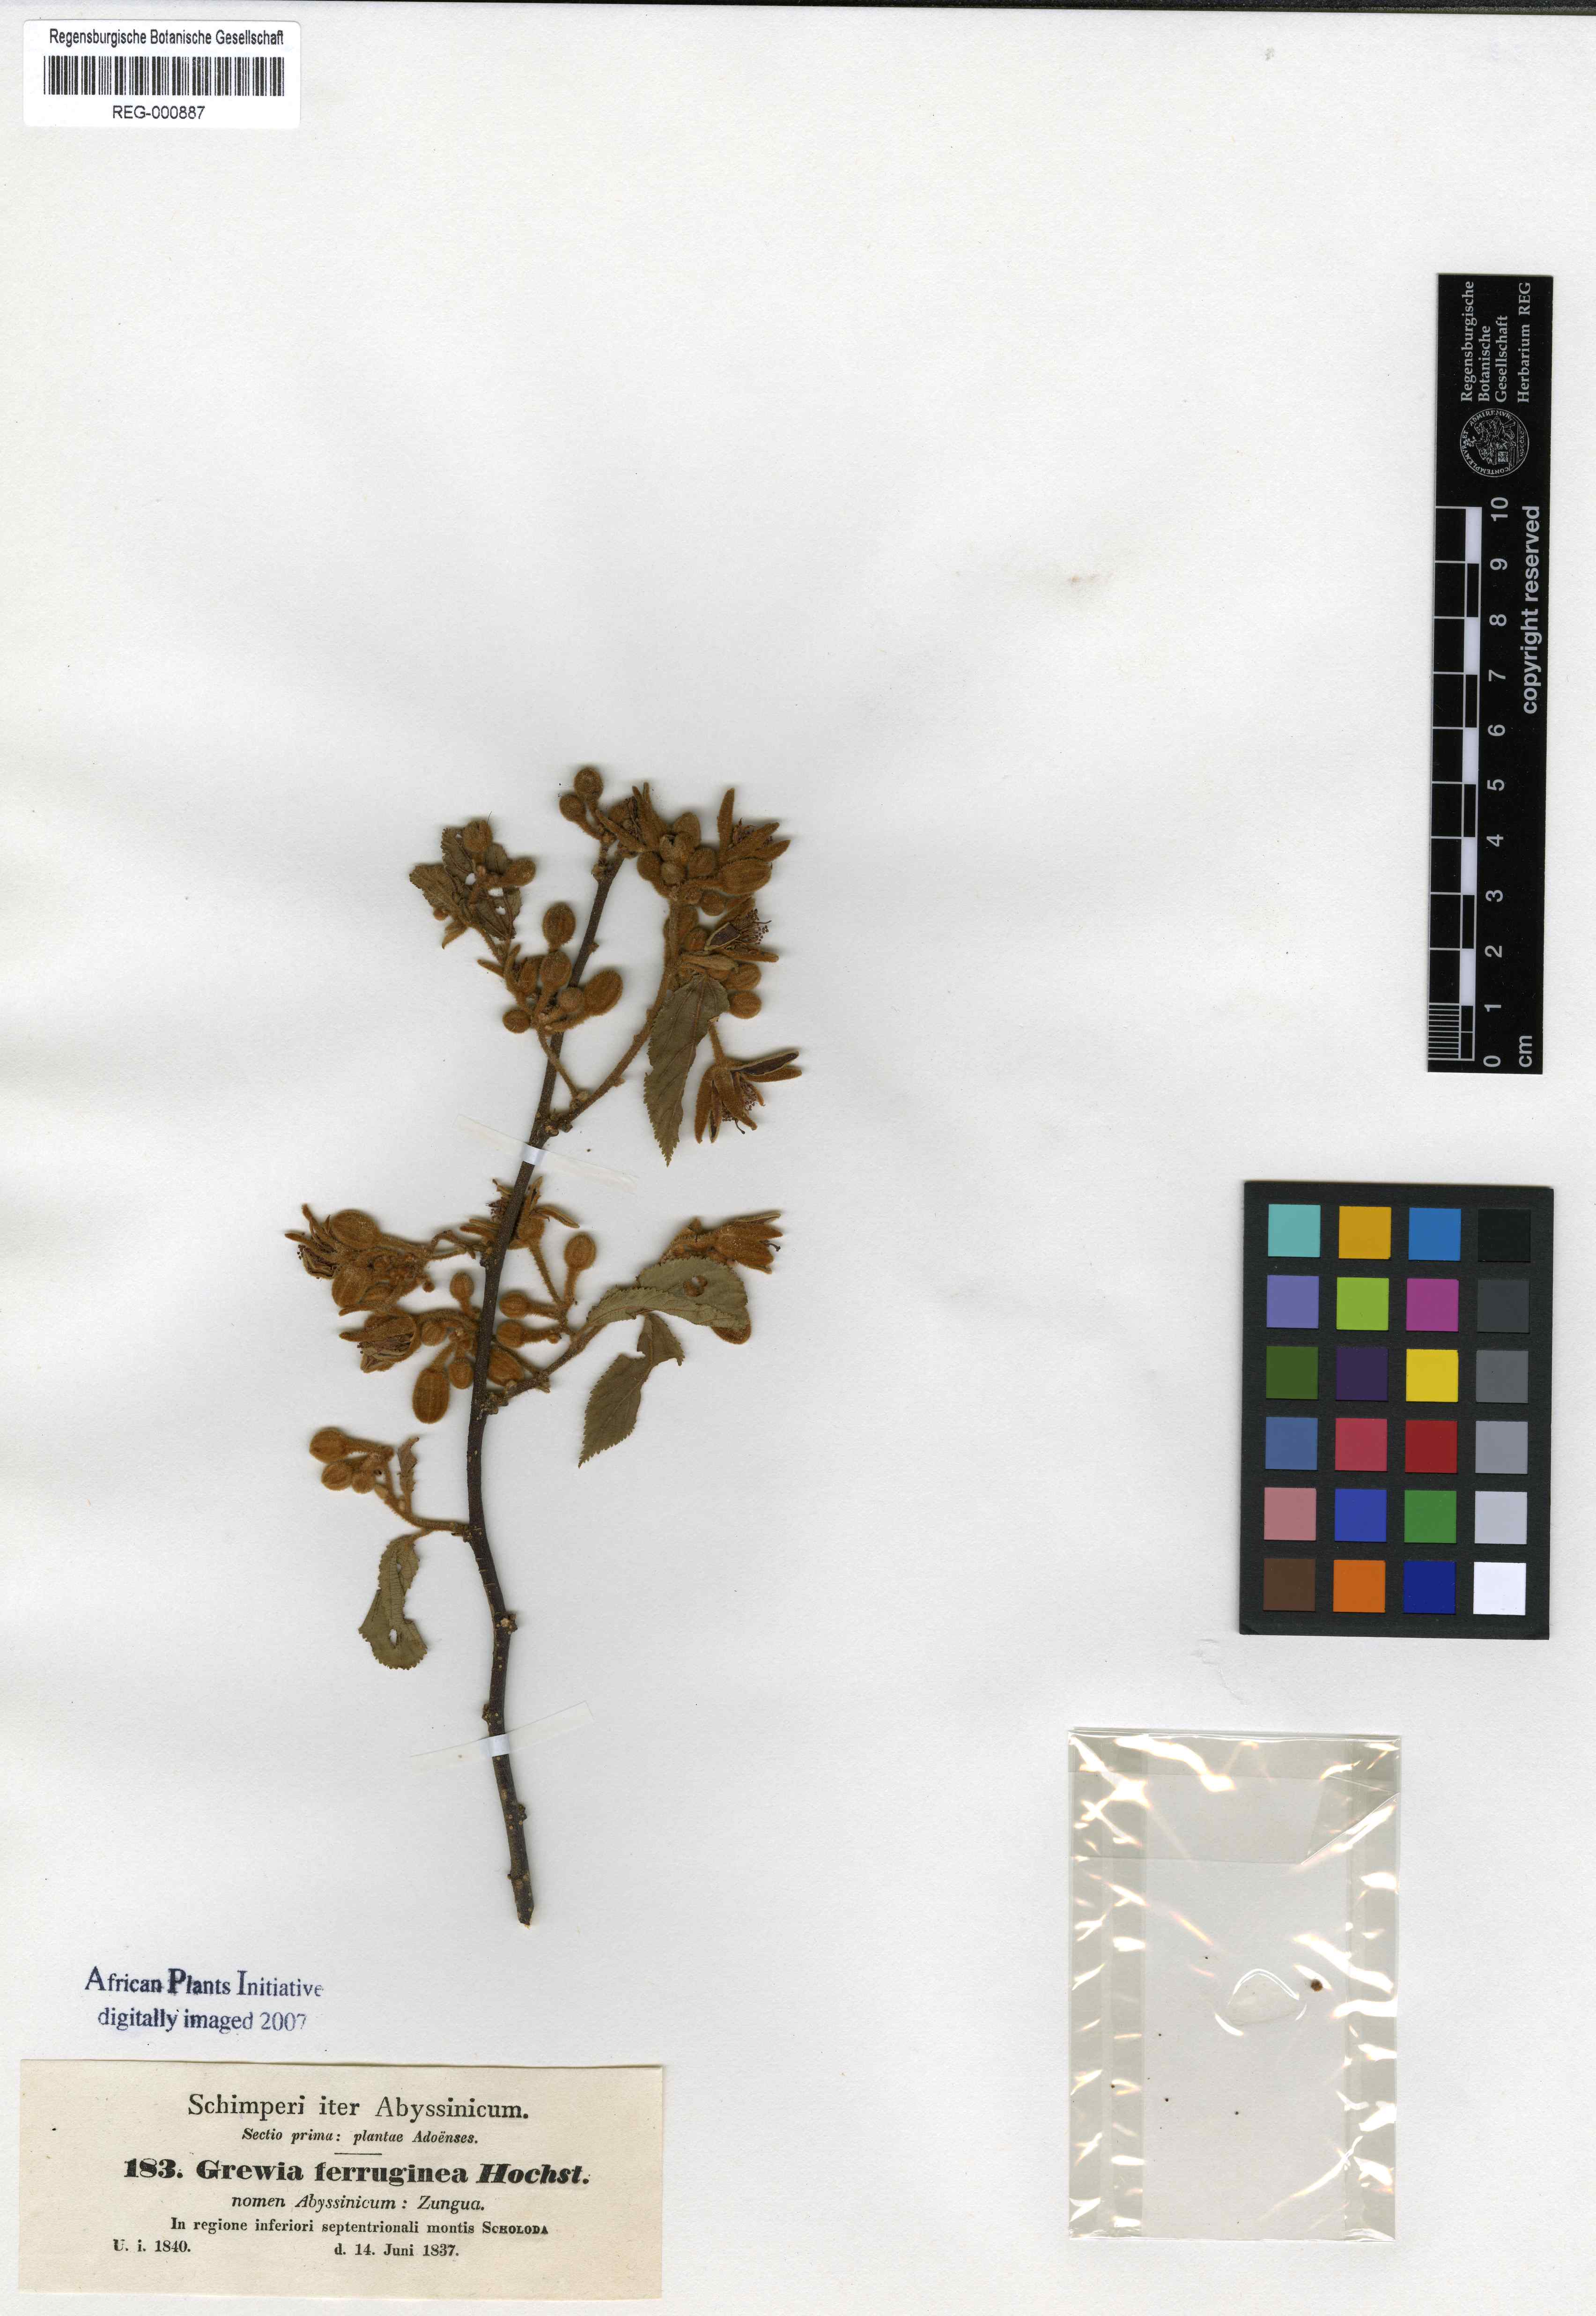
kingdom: Plantae
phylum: Tracheophyta
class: Magnoliopsida
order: Malvales
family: Malvaceae
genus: Grewia
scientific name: Grewia ferruginea
